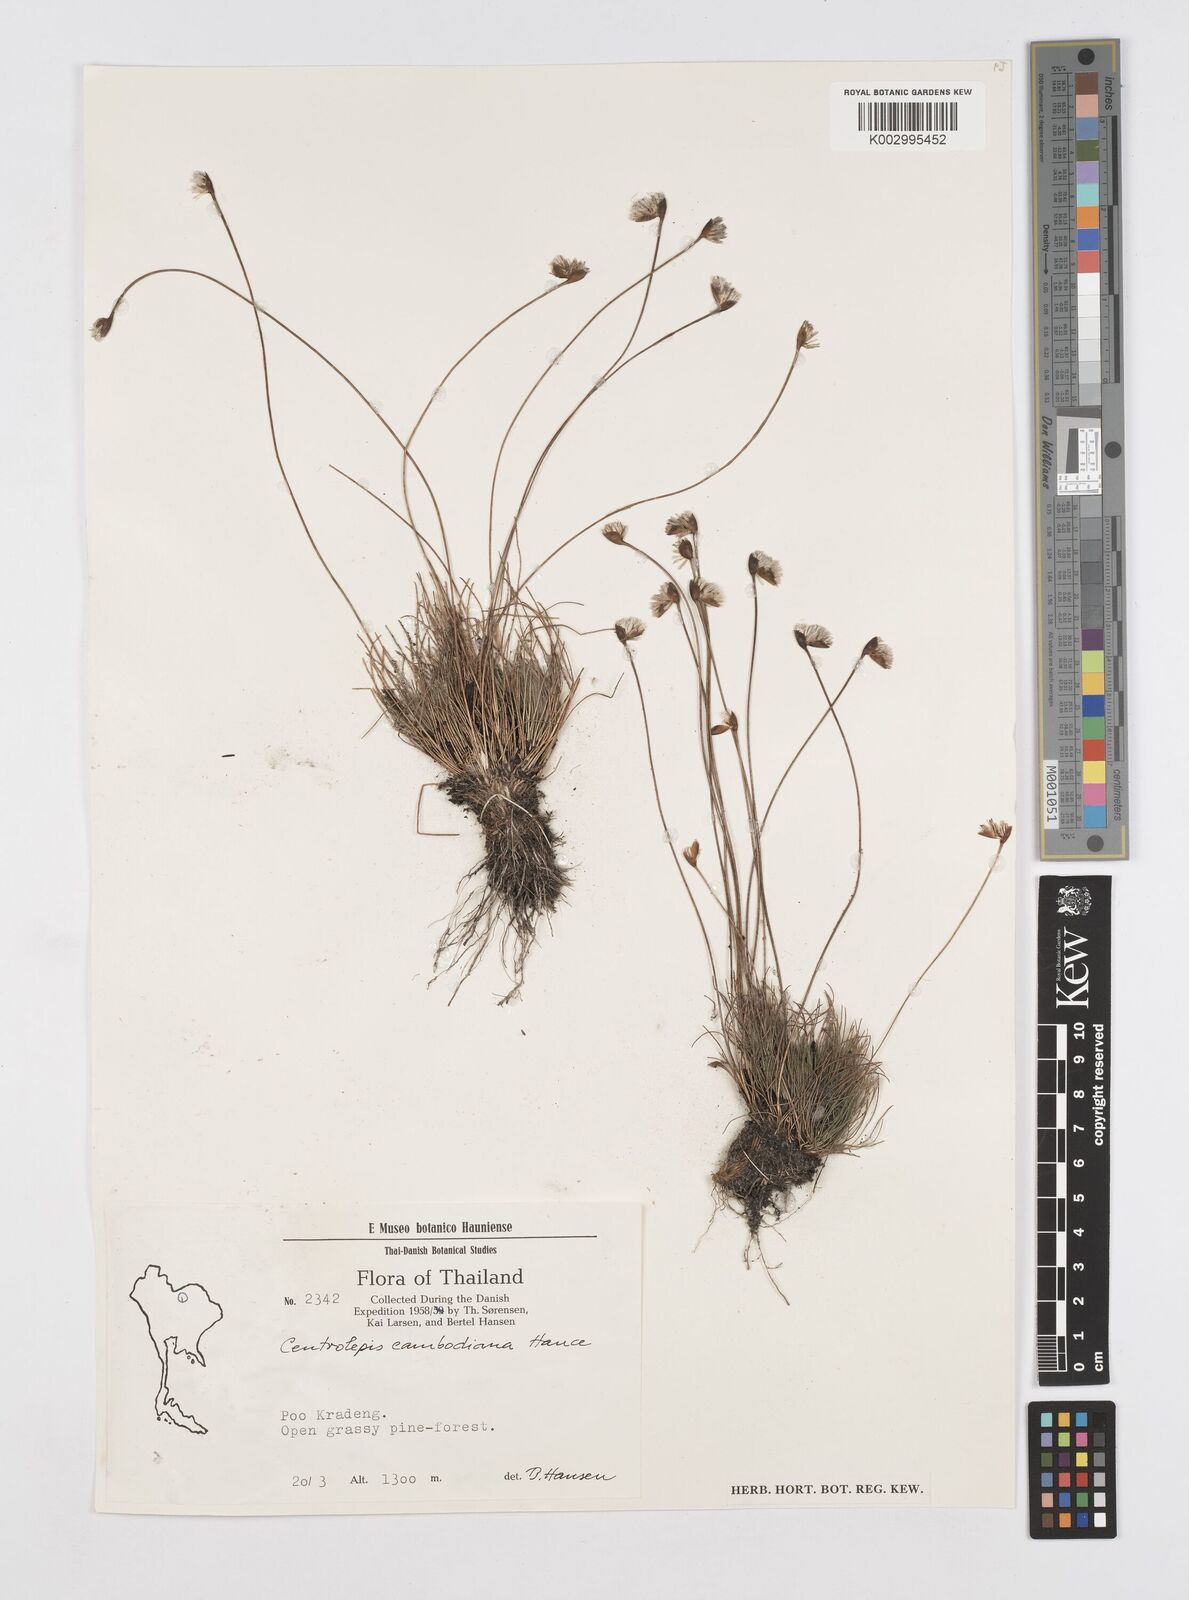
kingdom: Plantae
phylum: Tracheophyta
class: Liliopsida
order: Poales
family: Restionaceae
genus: Centrolepis
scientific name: Centrolepis cambodiana
